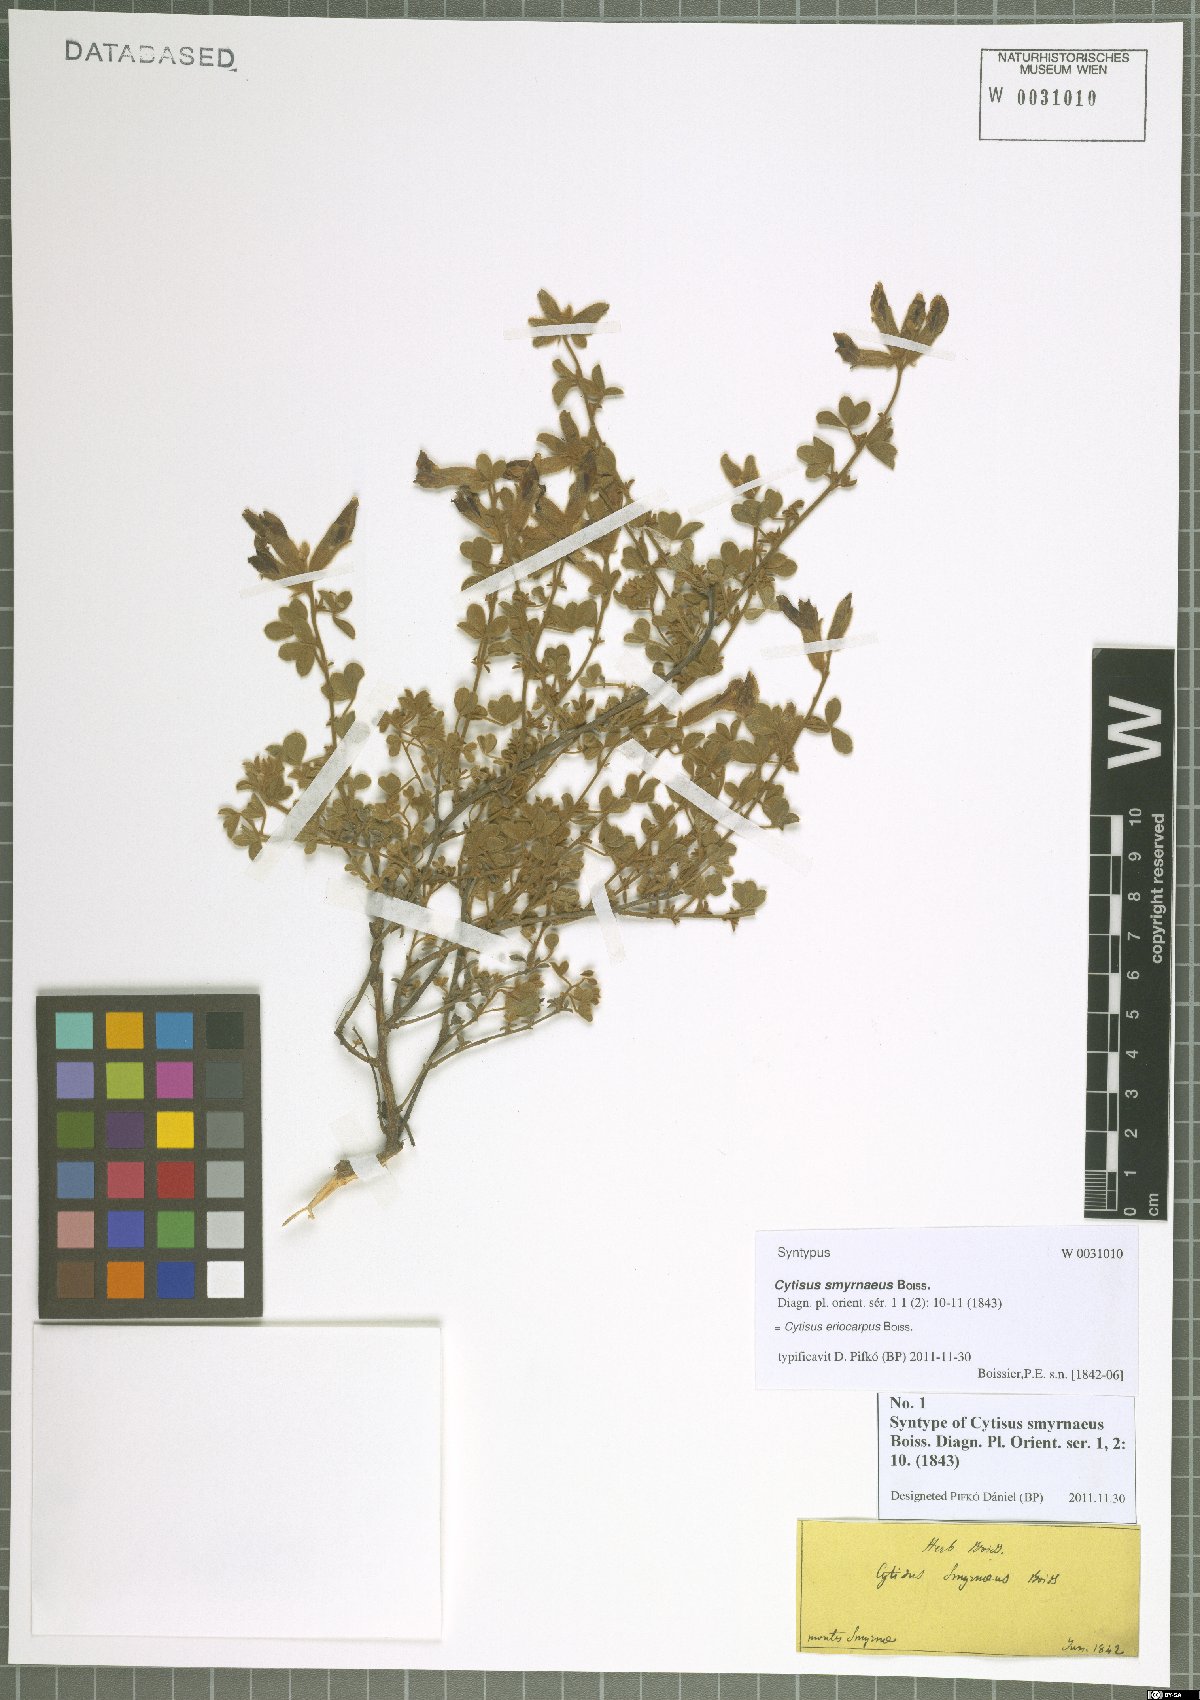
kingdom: Plantae
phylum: Tracheophyta
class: Magnoliopsida
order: Fabales
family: Fabaceae
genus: Chamaecytisus
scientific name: Chamaecytisus eriocarpus
